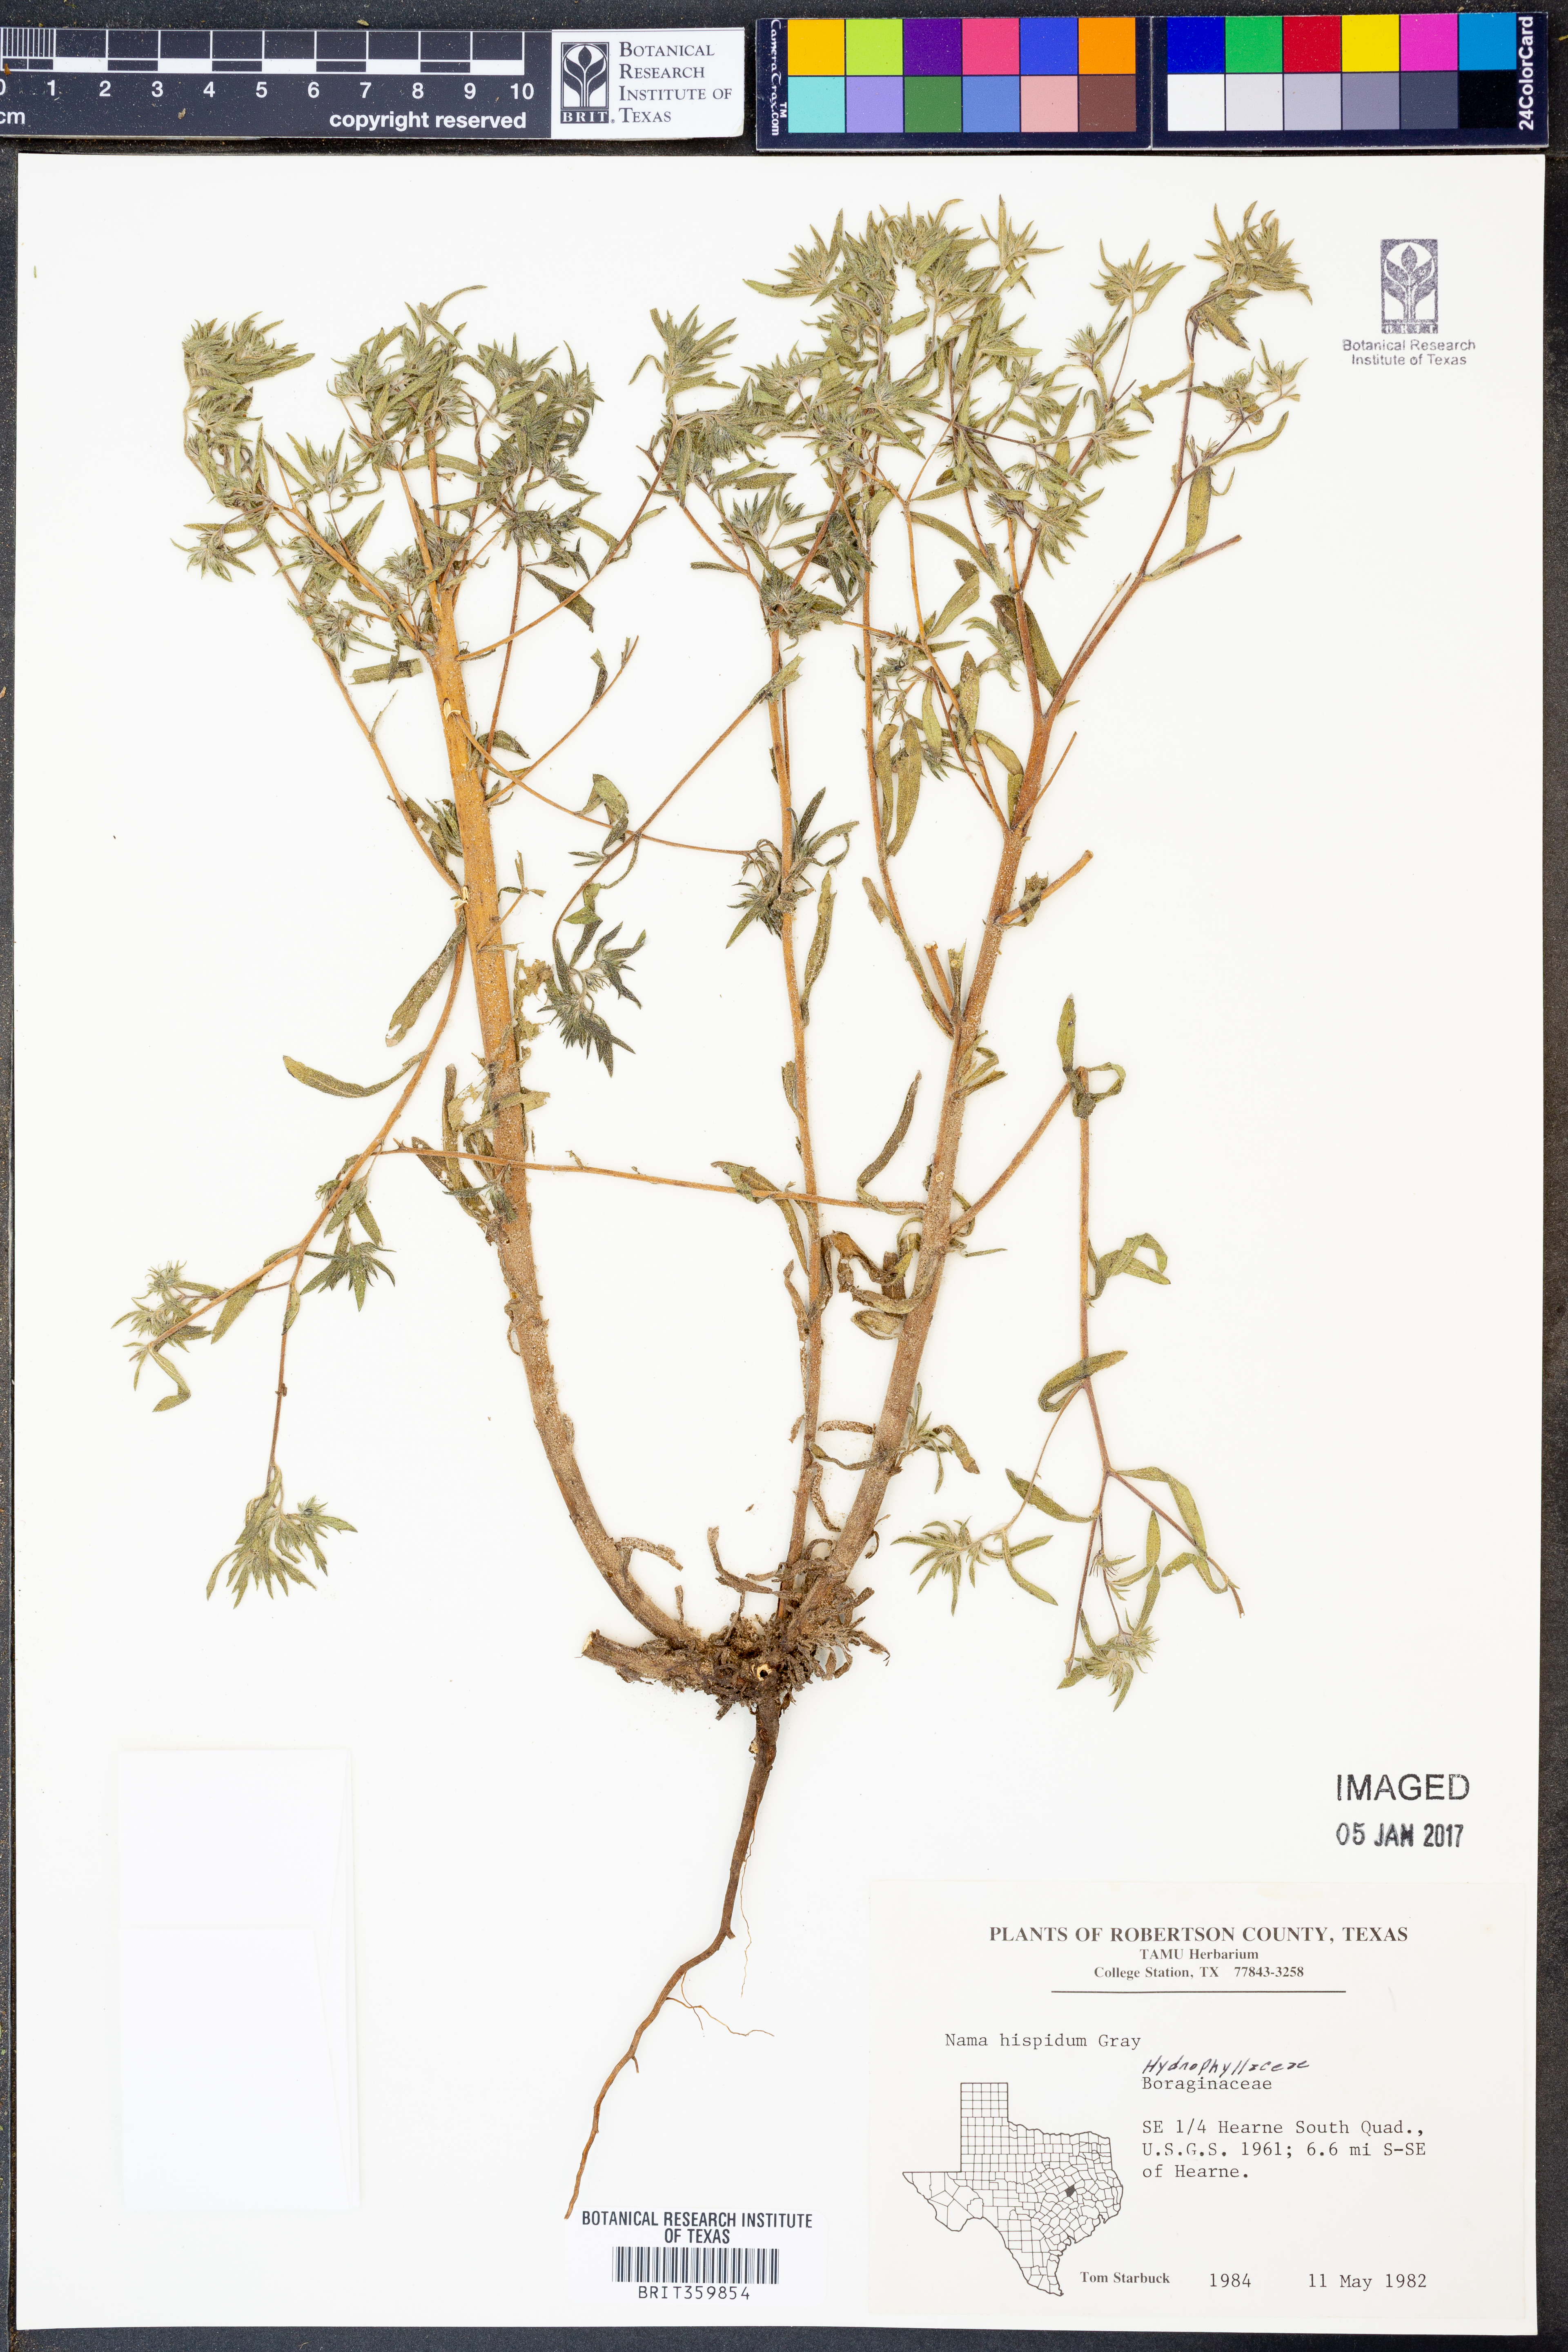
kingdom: Plantae
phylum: Tracheophyta
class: Magnoliopsida
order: Boraginales
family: Namaceae
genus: Nama
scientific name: Nama hispida
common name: Bristly nama
